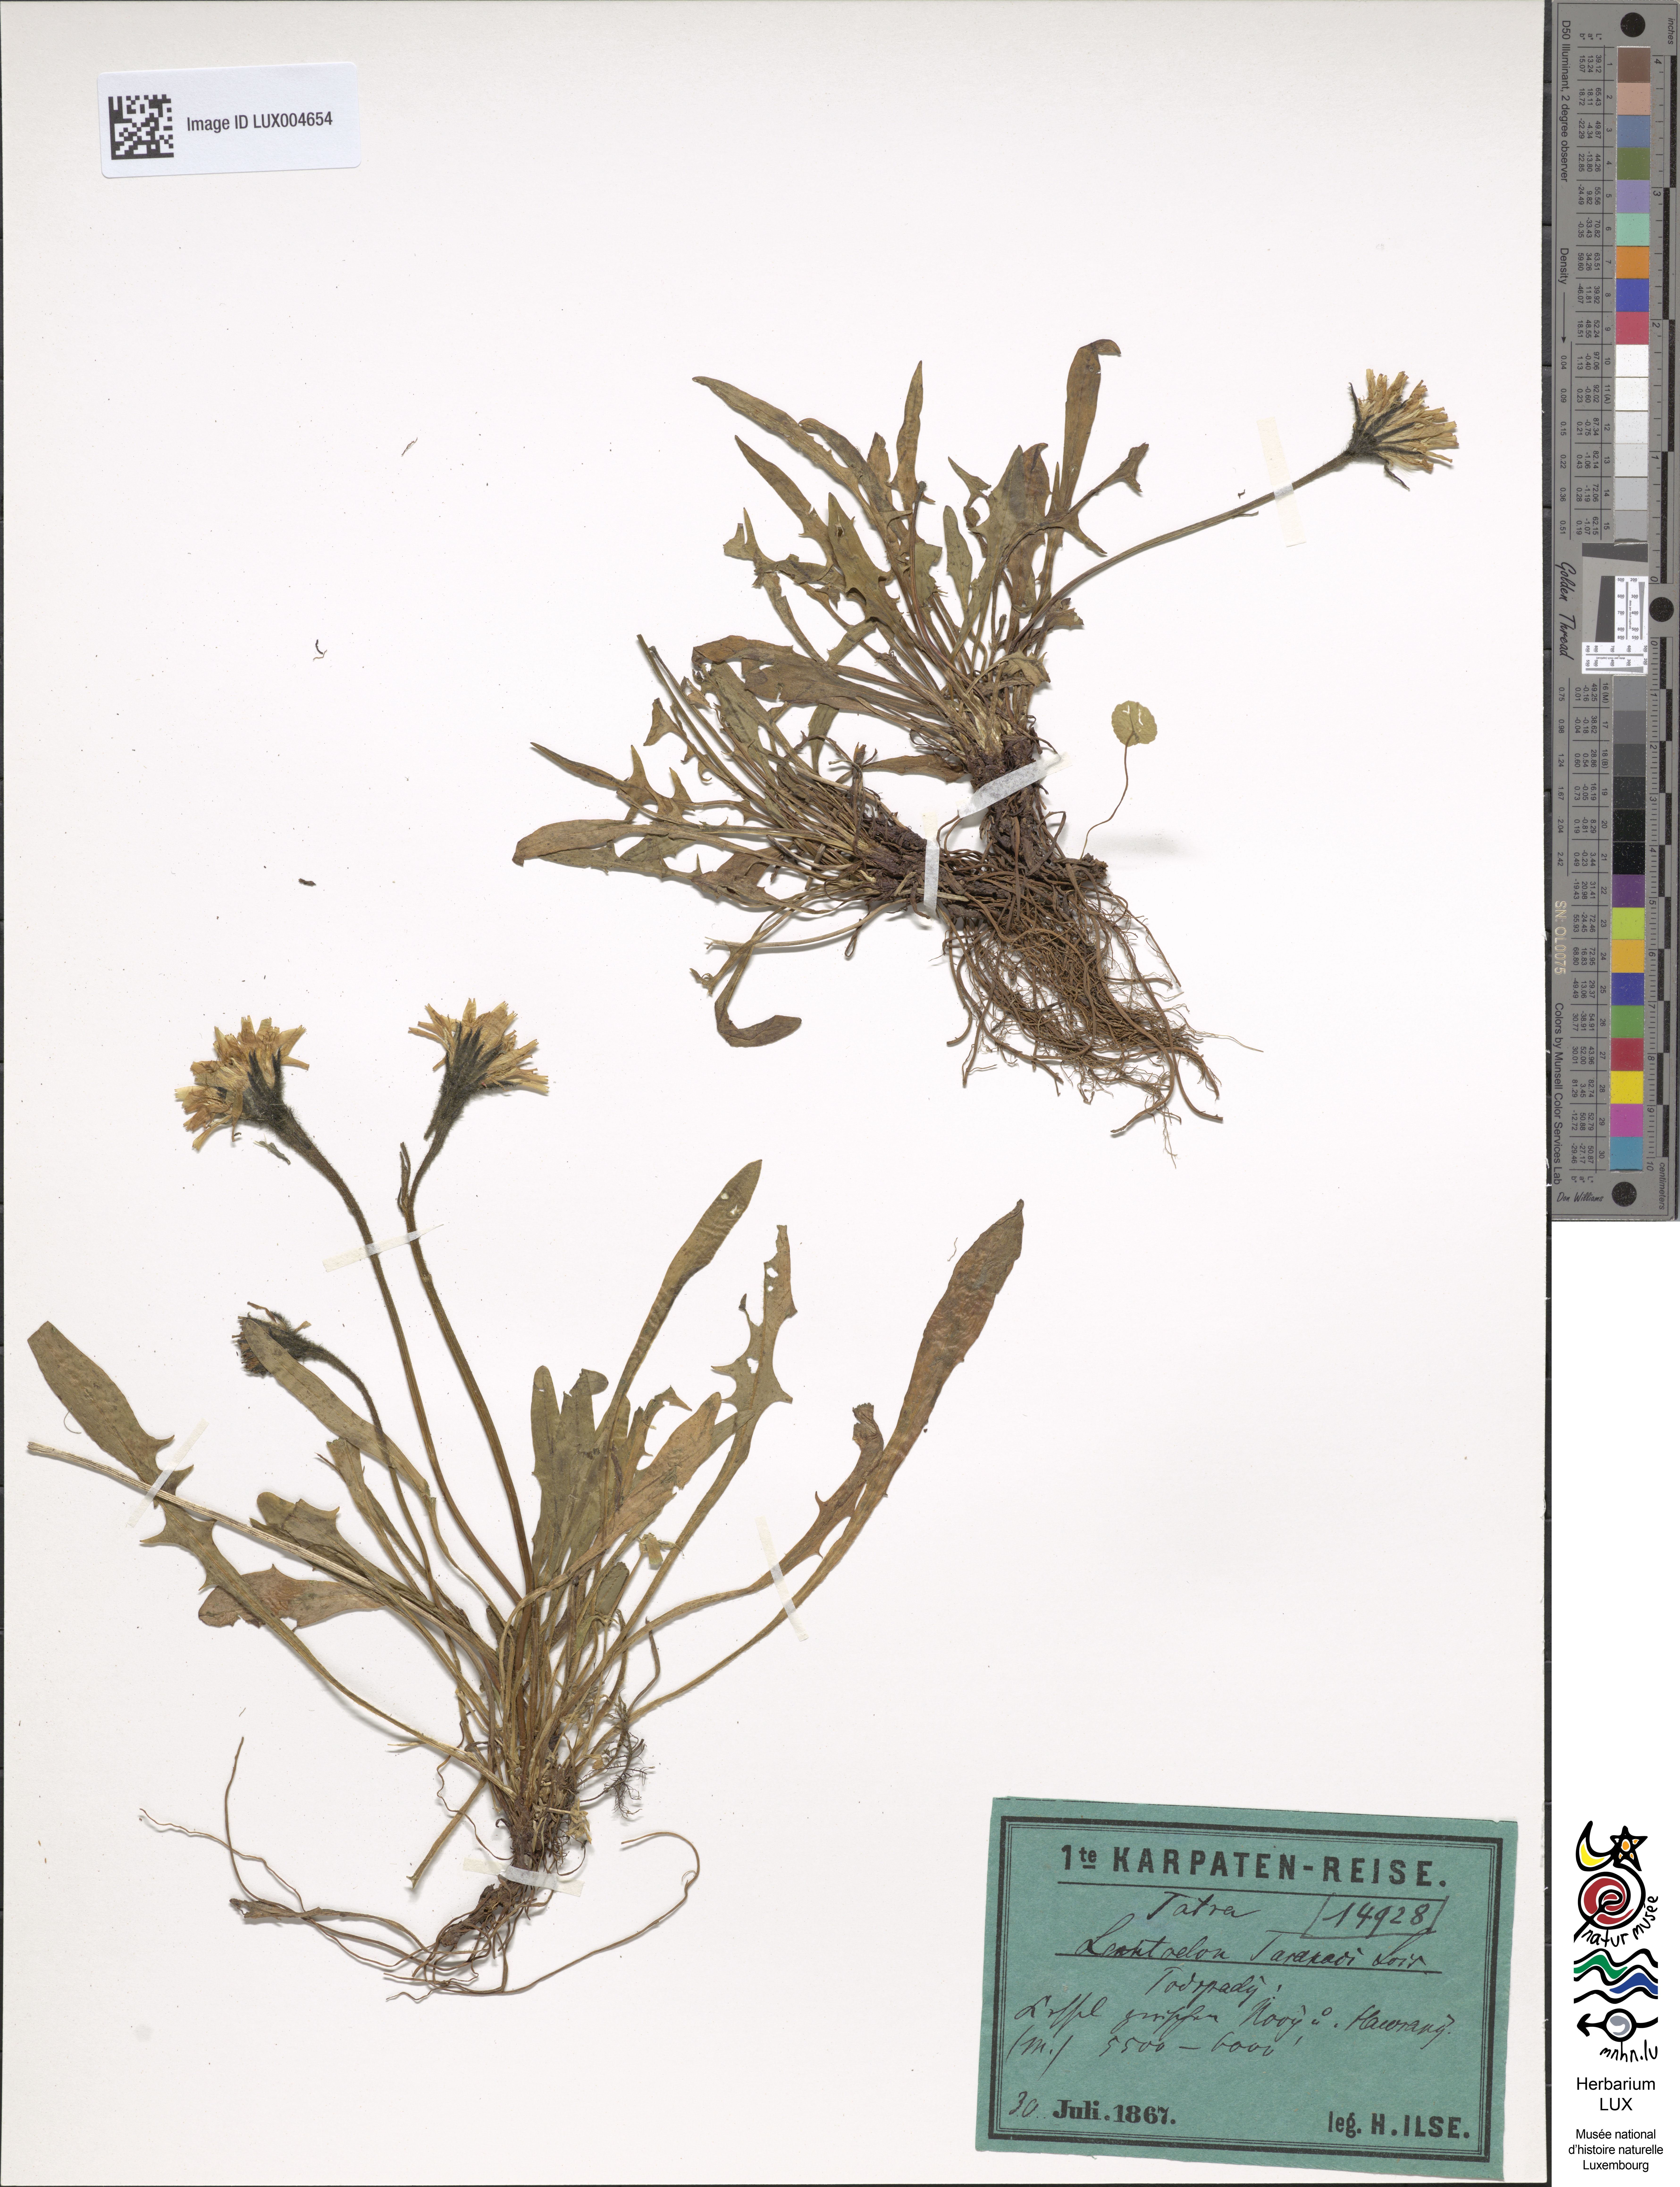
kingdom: Plantae
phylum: Tracheophyta
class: Magnoliopsida
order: Asterales
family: Asteraceae
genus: Scorzoneroides
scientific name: Scorzoneroides montana
